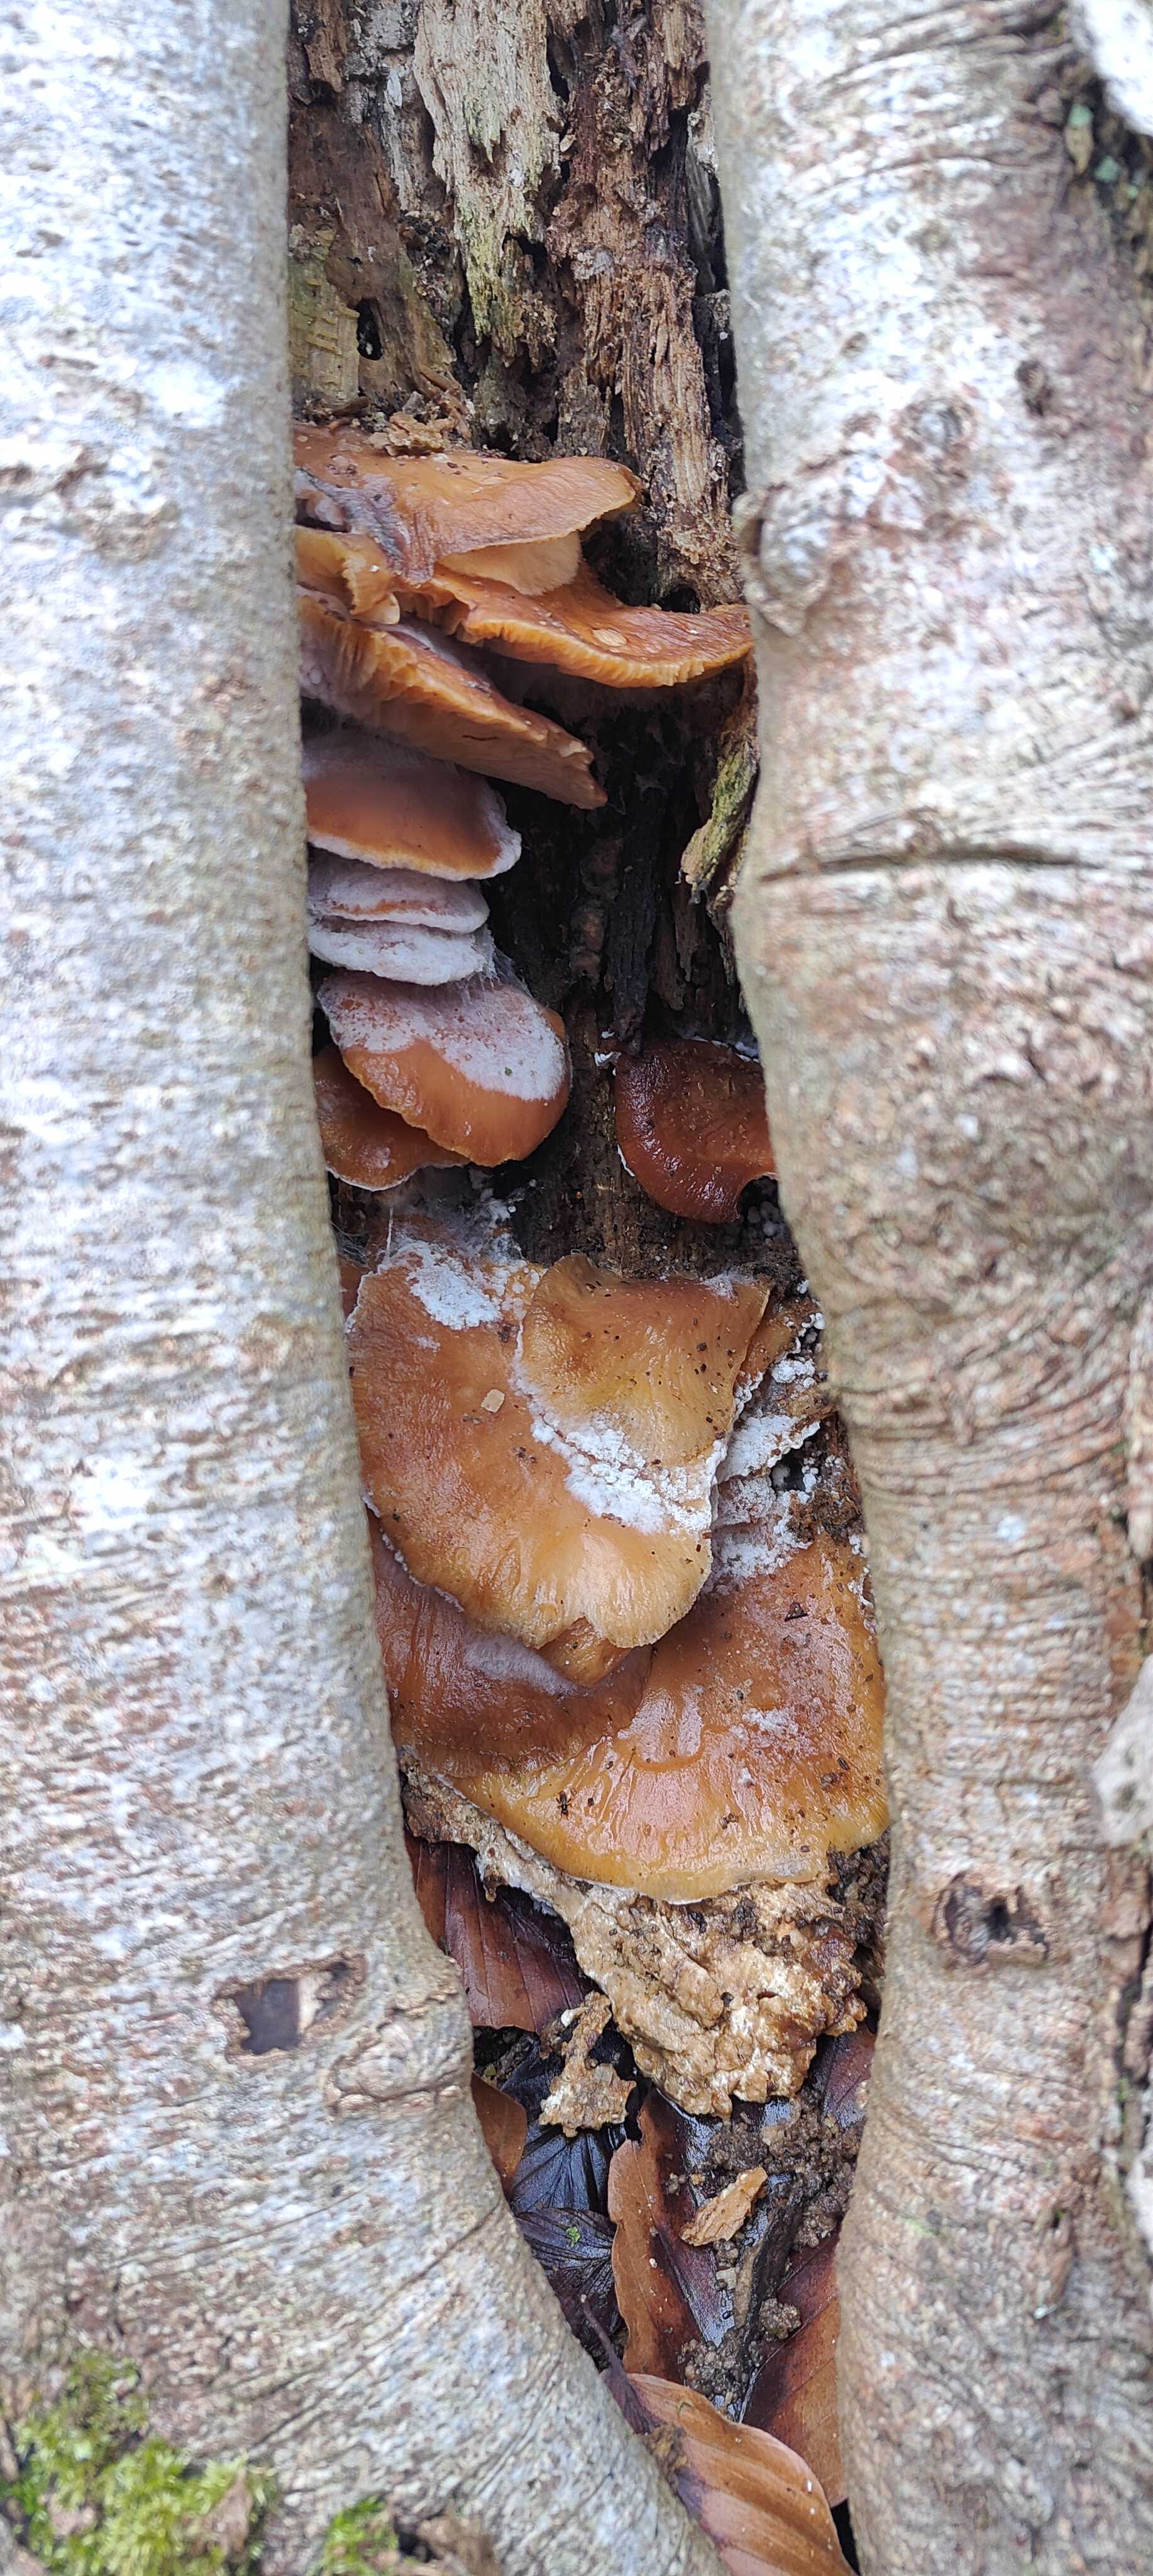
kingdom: Fungi
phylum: Basidiomycota
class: Agaricomycetes
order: Agaricales
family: Pleurotaceae
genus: Pleurotus
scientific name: Pleurotus ostreatus
